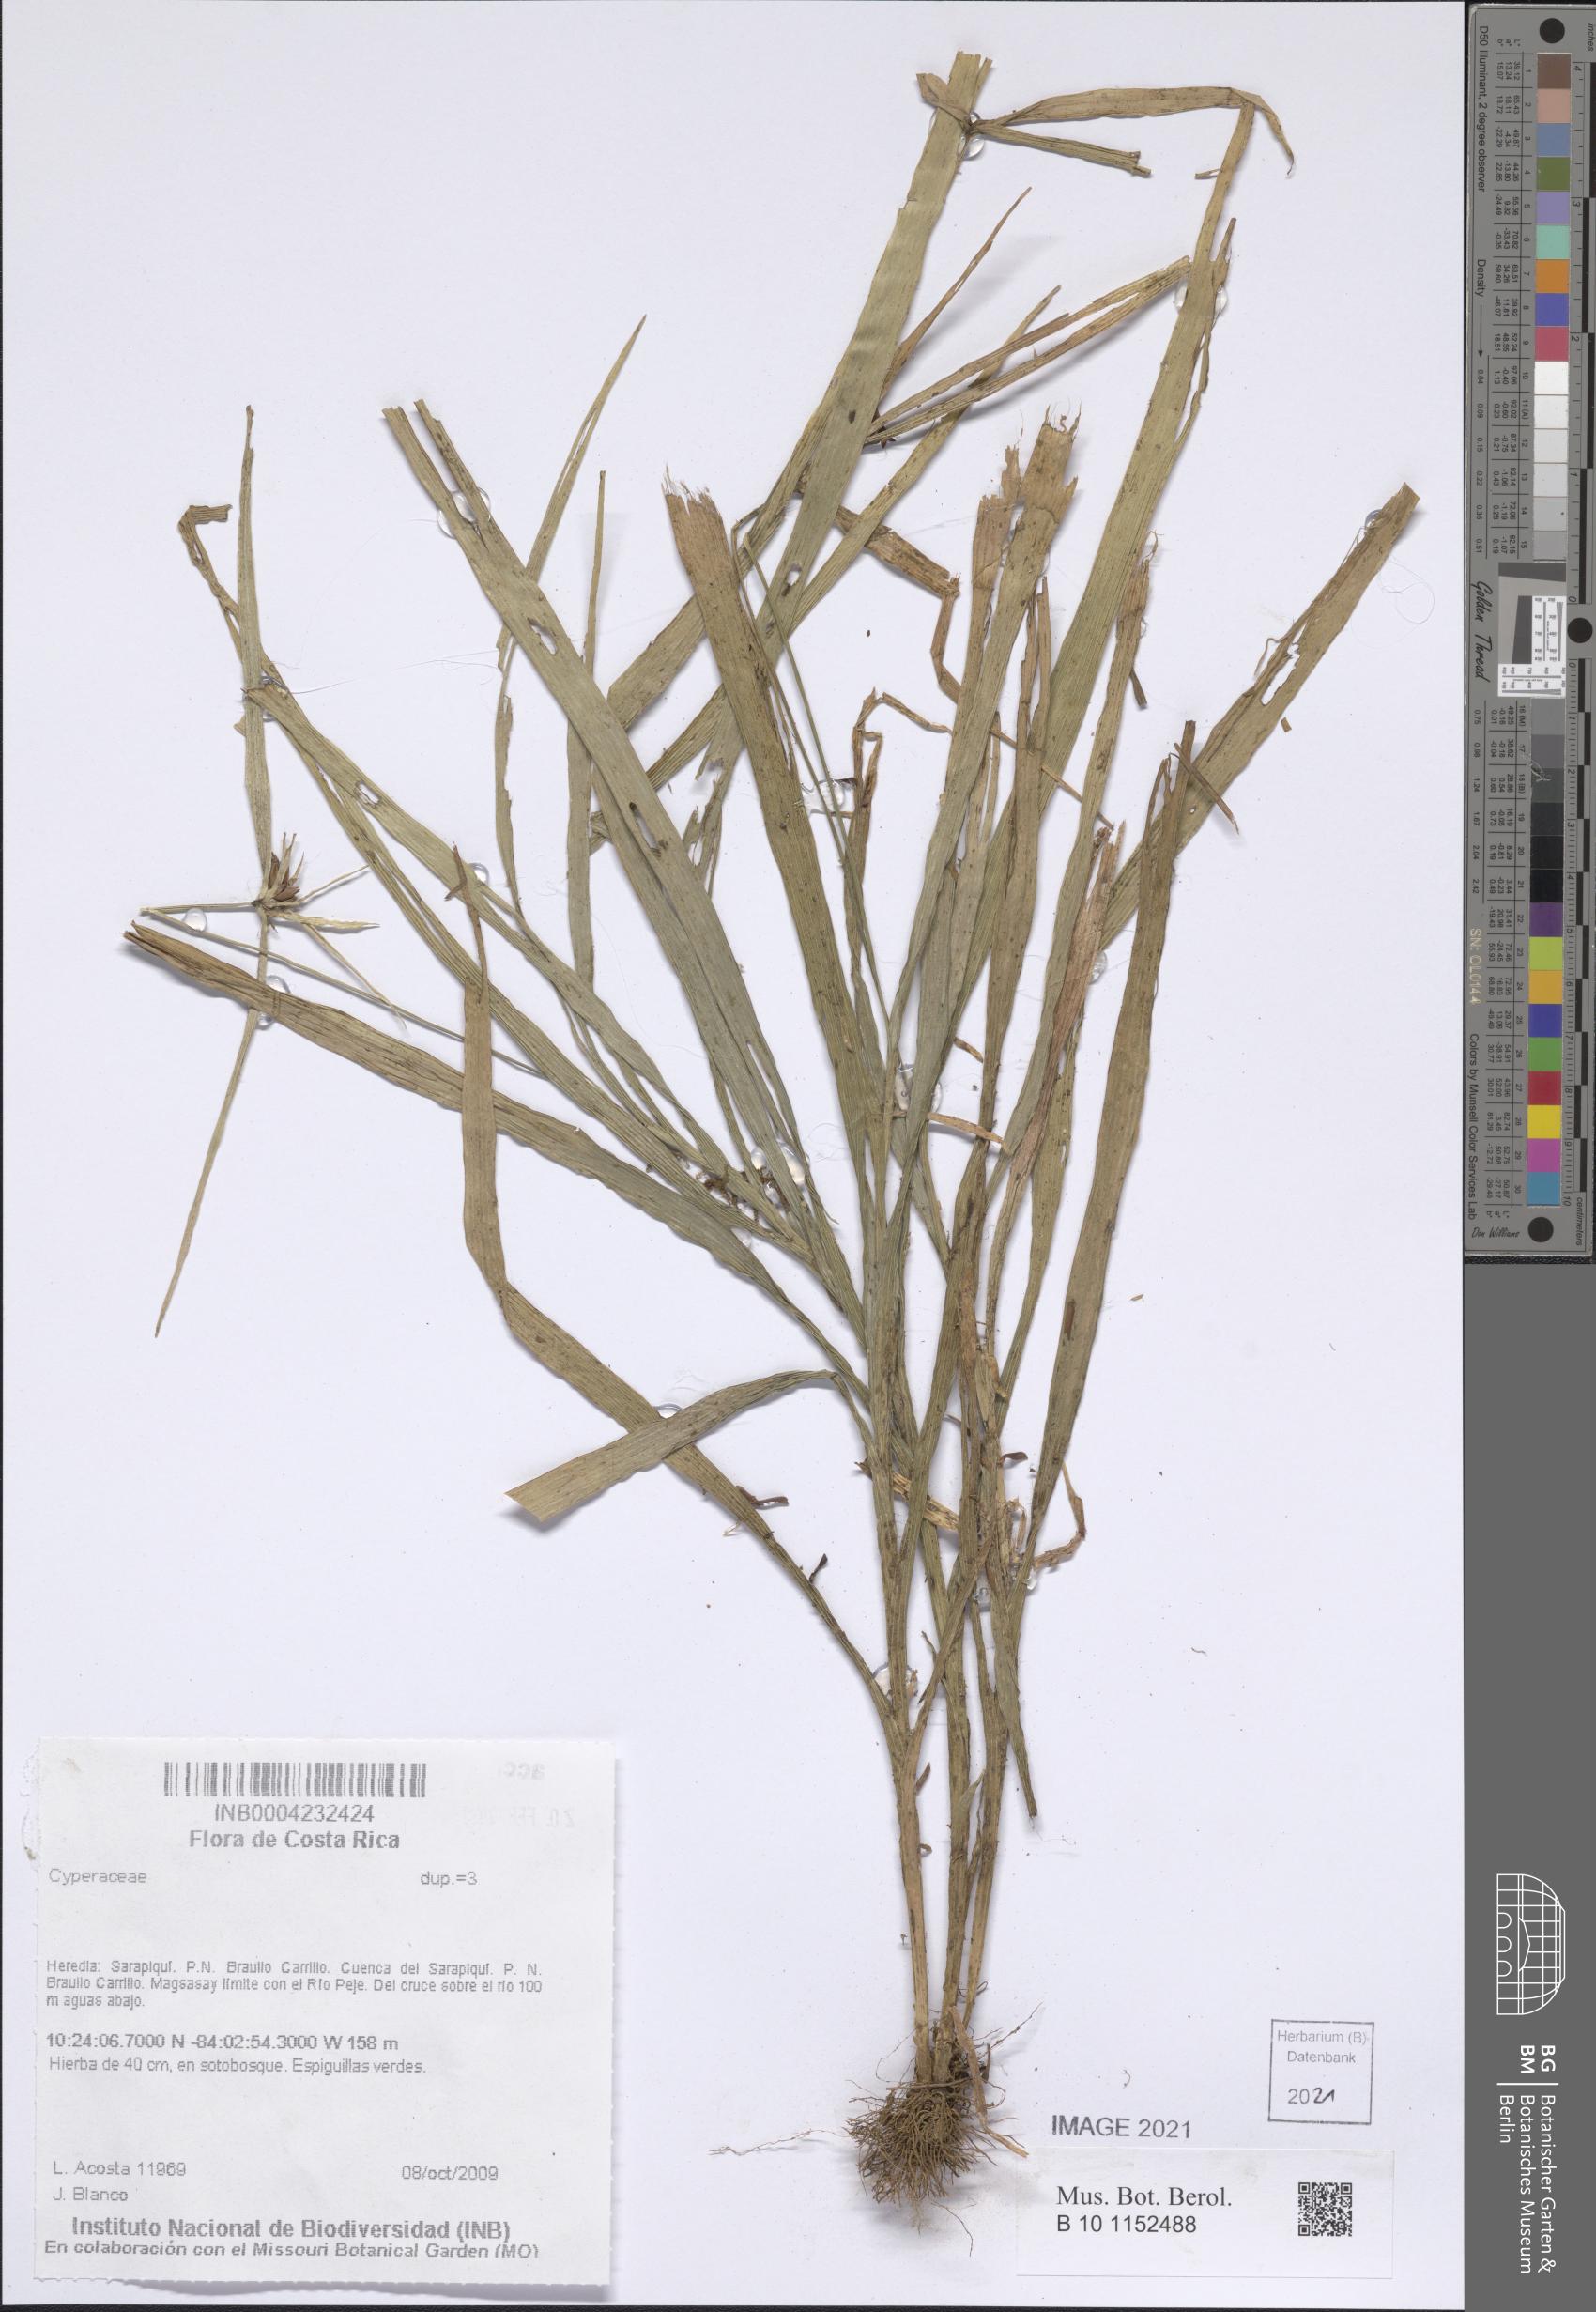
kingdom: Plantae
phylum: Tracheophyta
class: Liliopsida
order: Poales
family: Cyperaceae
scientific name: Cyperaceae
